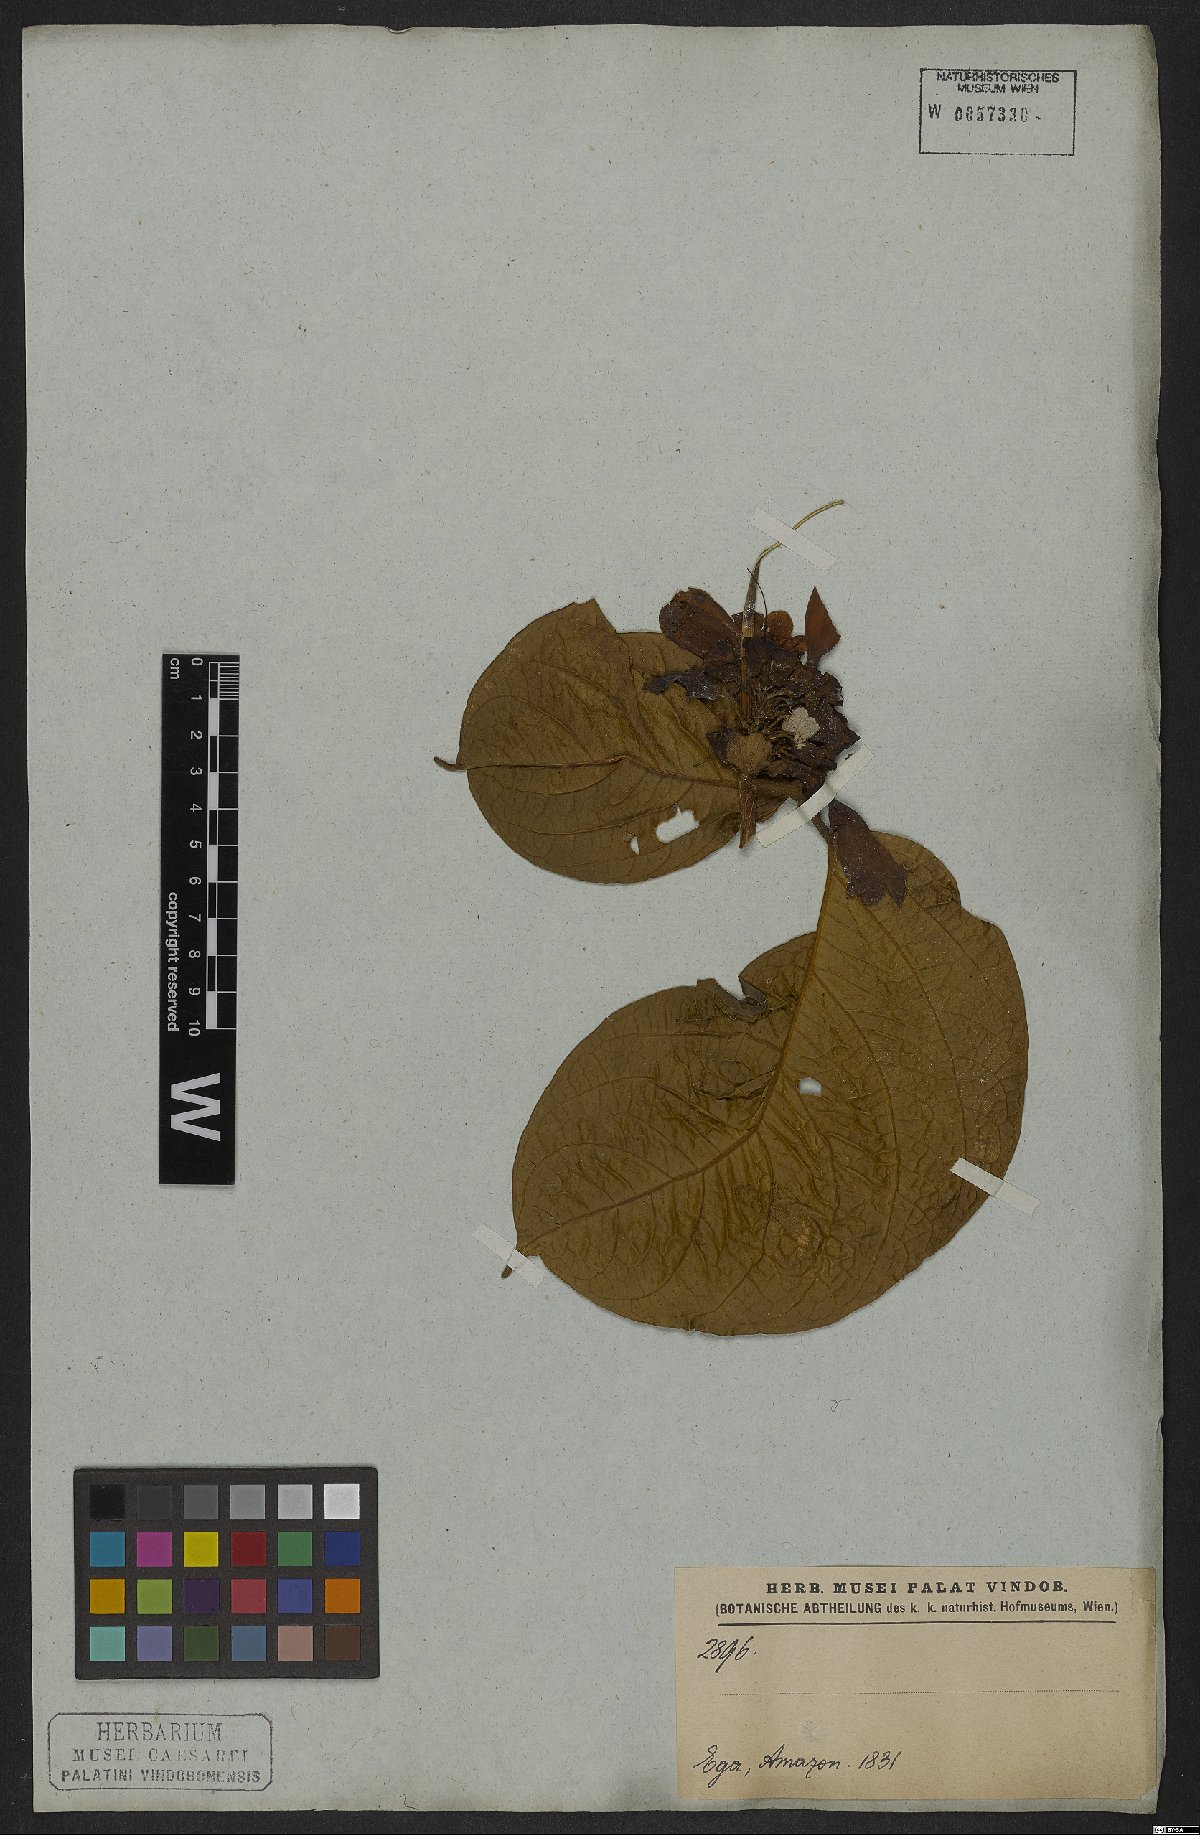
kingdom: Plantae
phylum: Tracheophyta
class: Magnoliopsida
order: Lamiales
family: Bignoniaceae
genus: Anemopaegma
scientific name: Anemopaegma paraense
